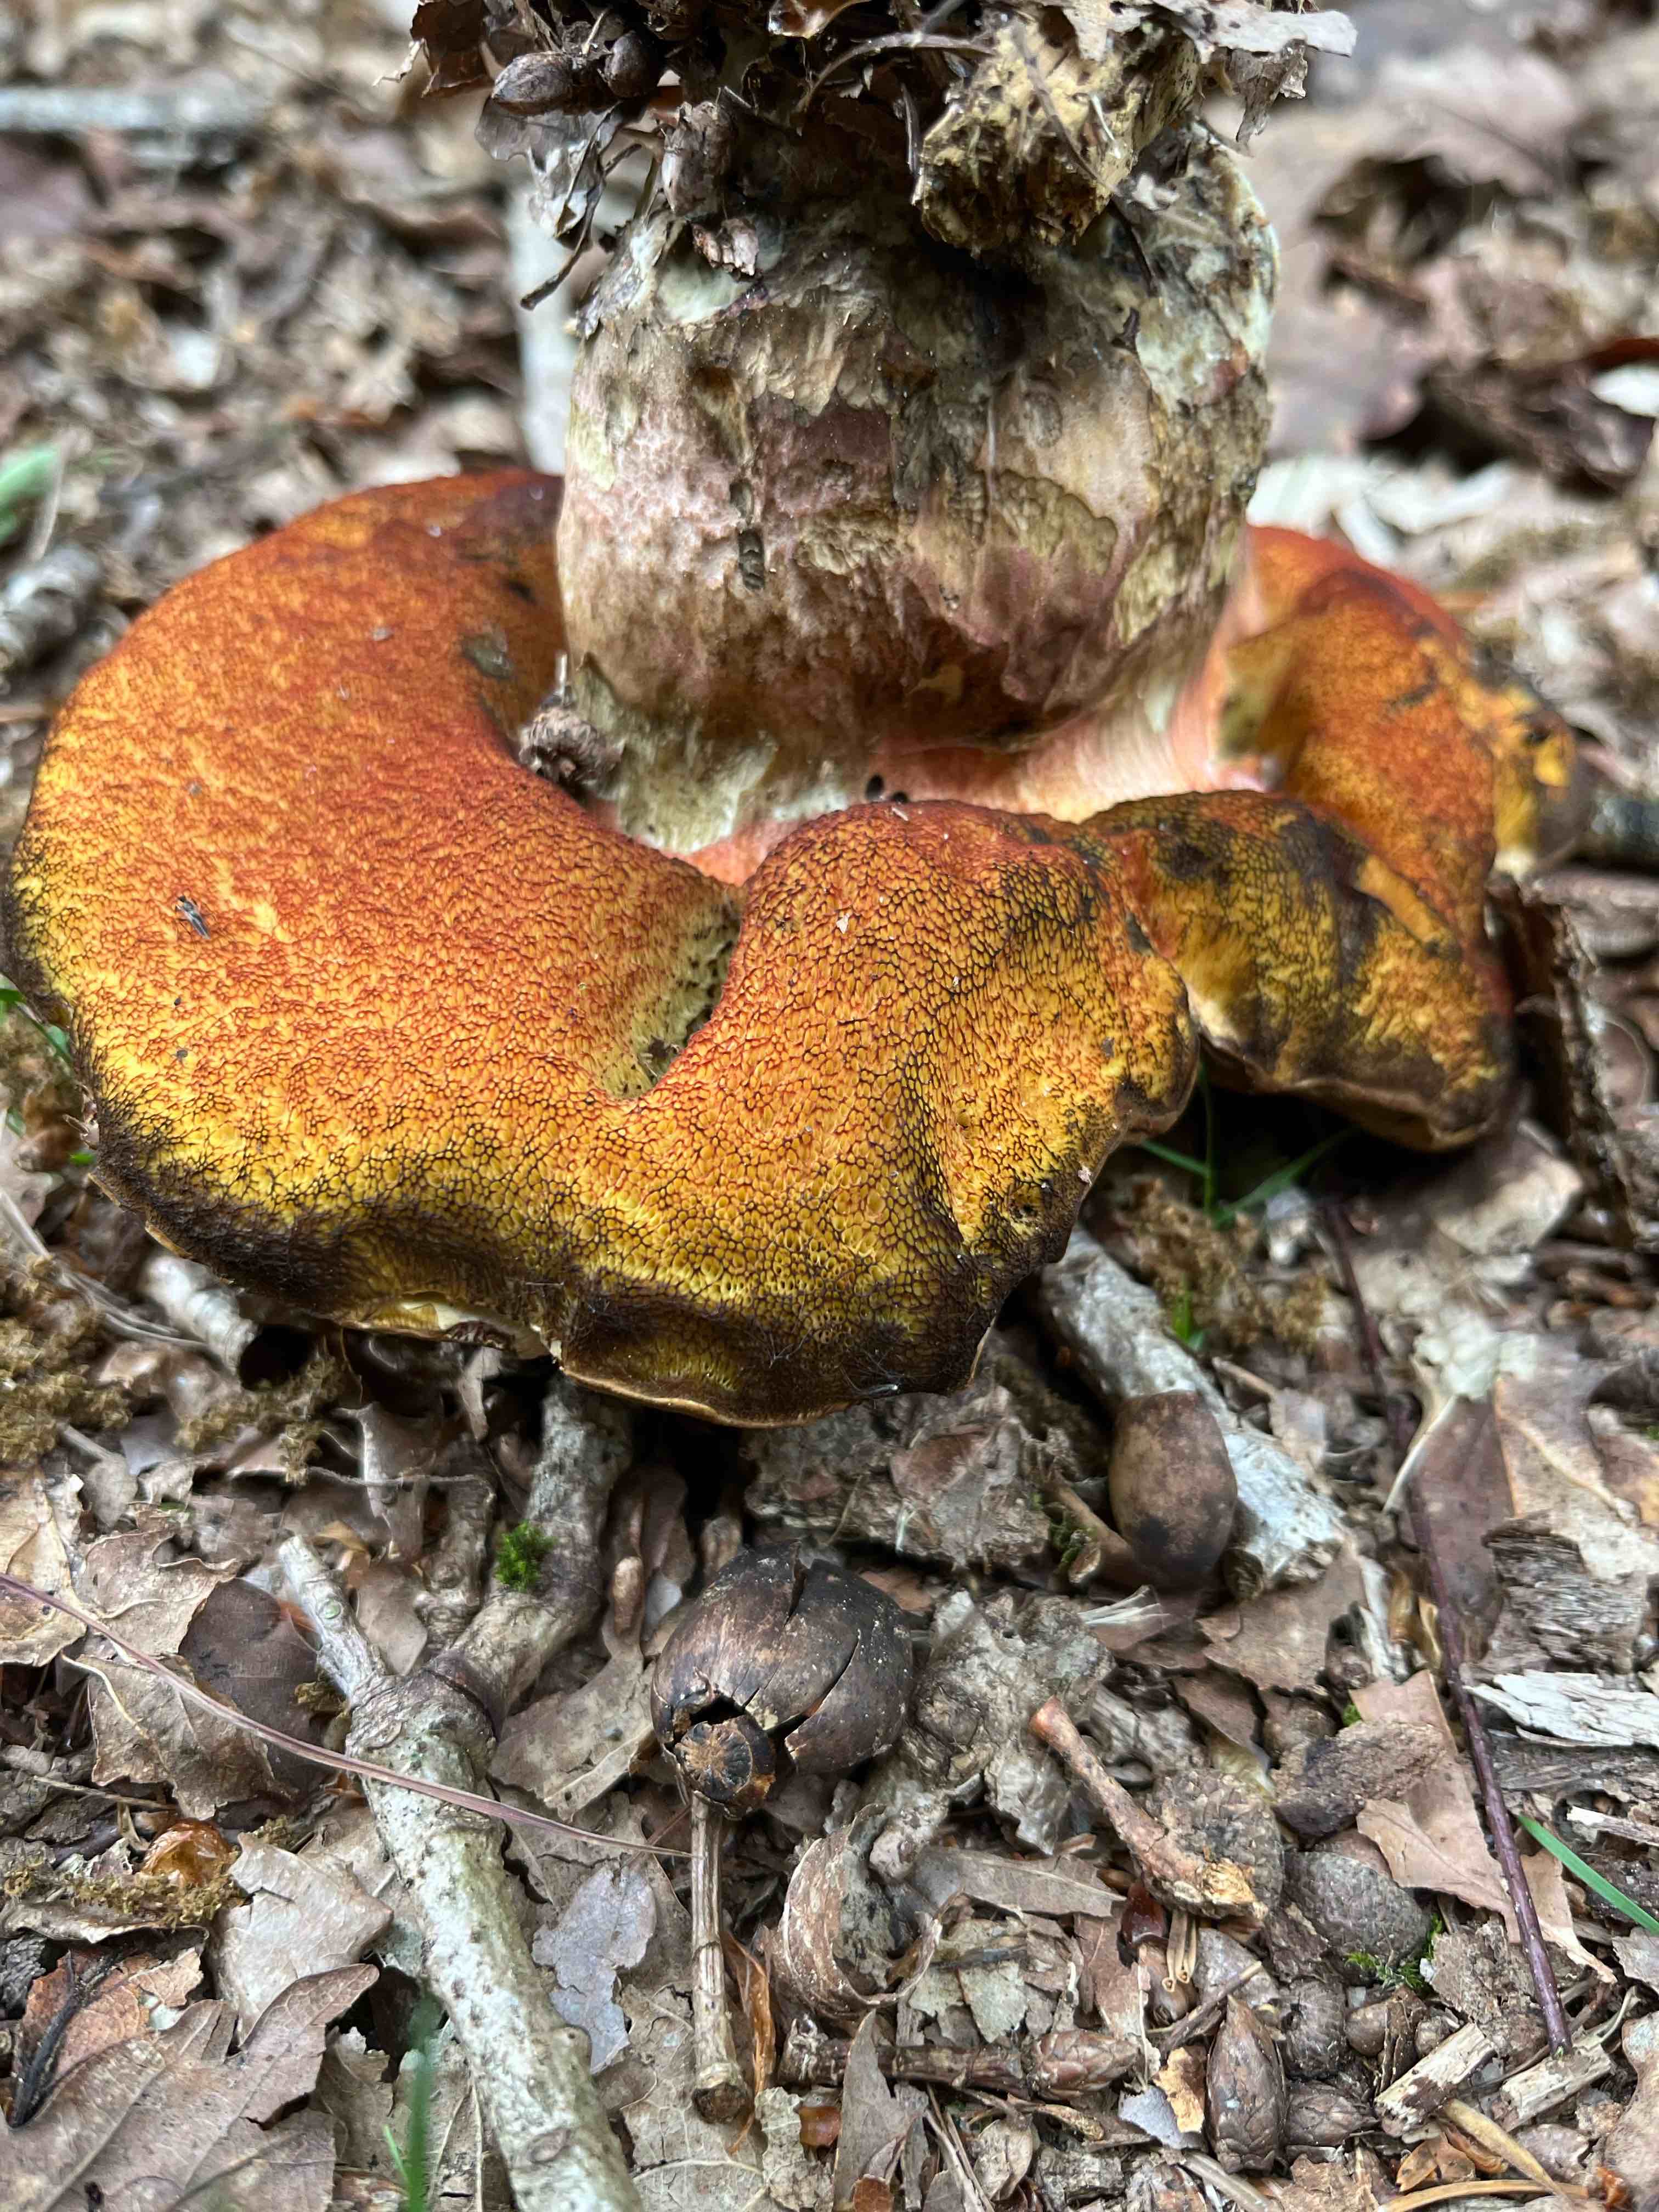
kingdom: Fungi
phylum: Basidiomycota
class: Agaricomycetes
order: Boletales
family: Boletaceae
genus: Neoboletus
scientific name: Neoboletus erythropus
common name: punktstokket indigorørhat
